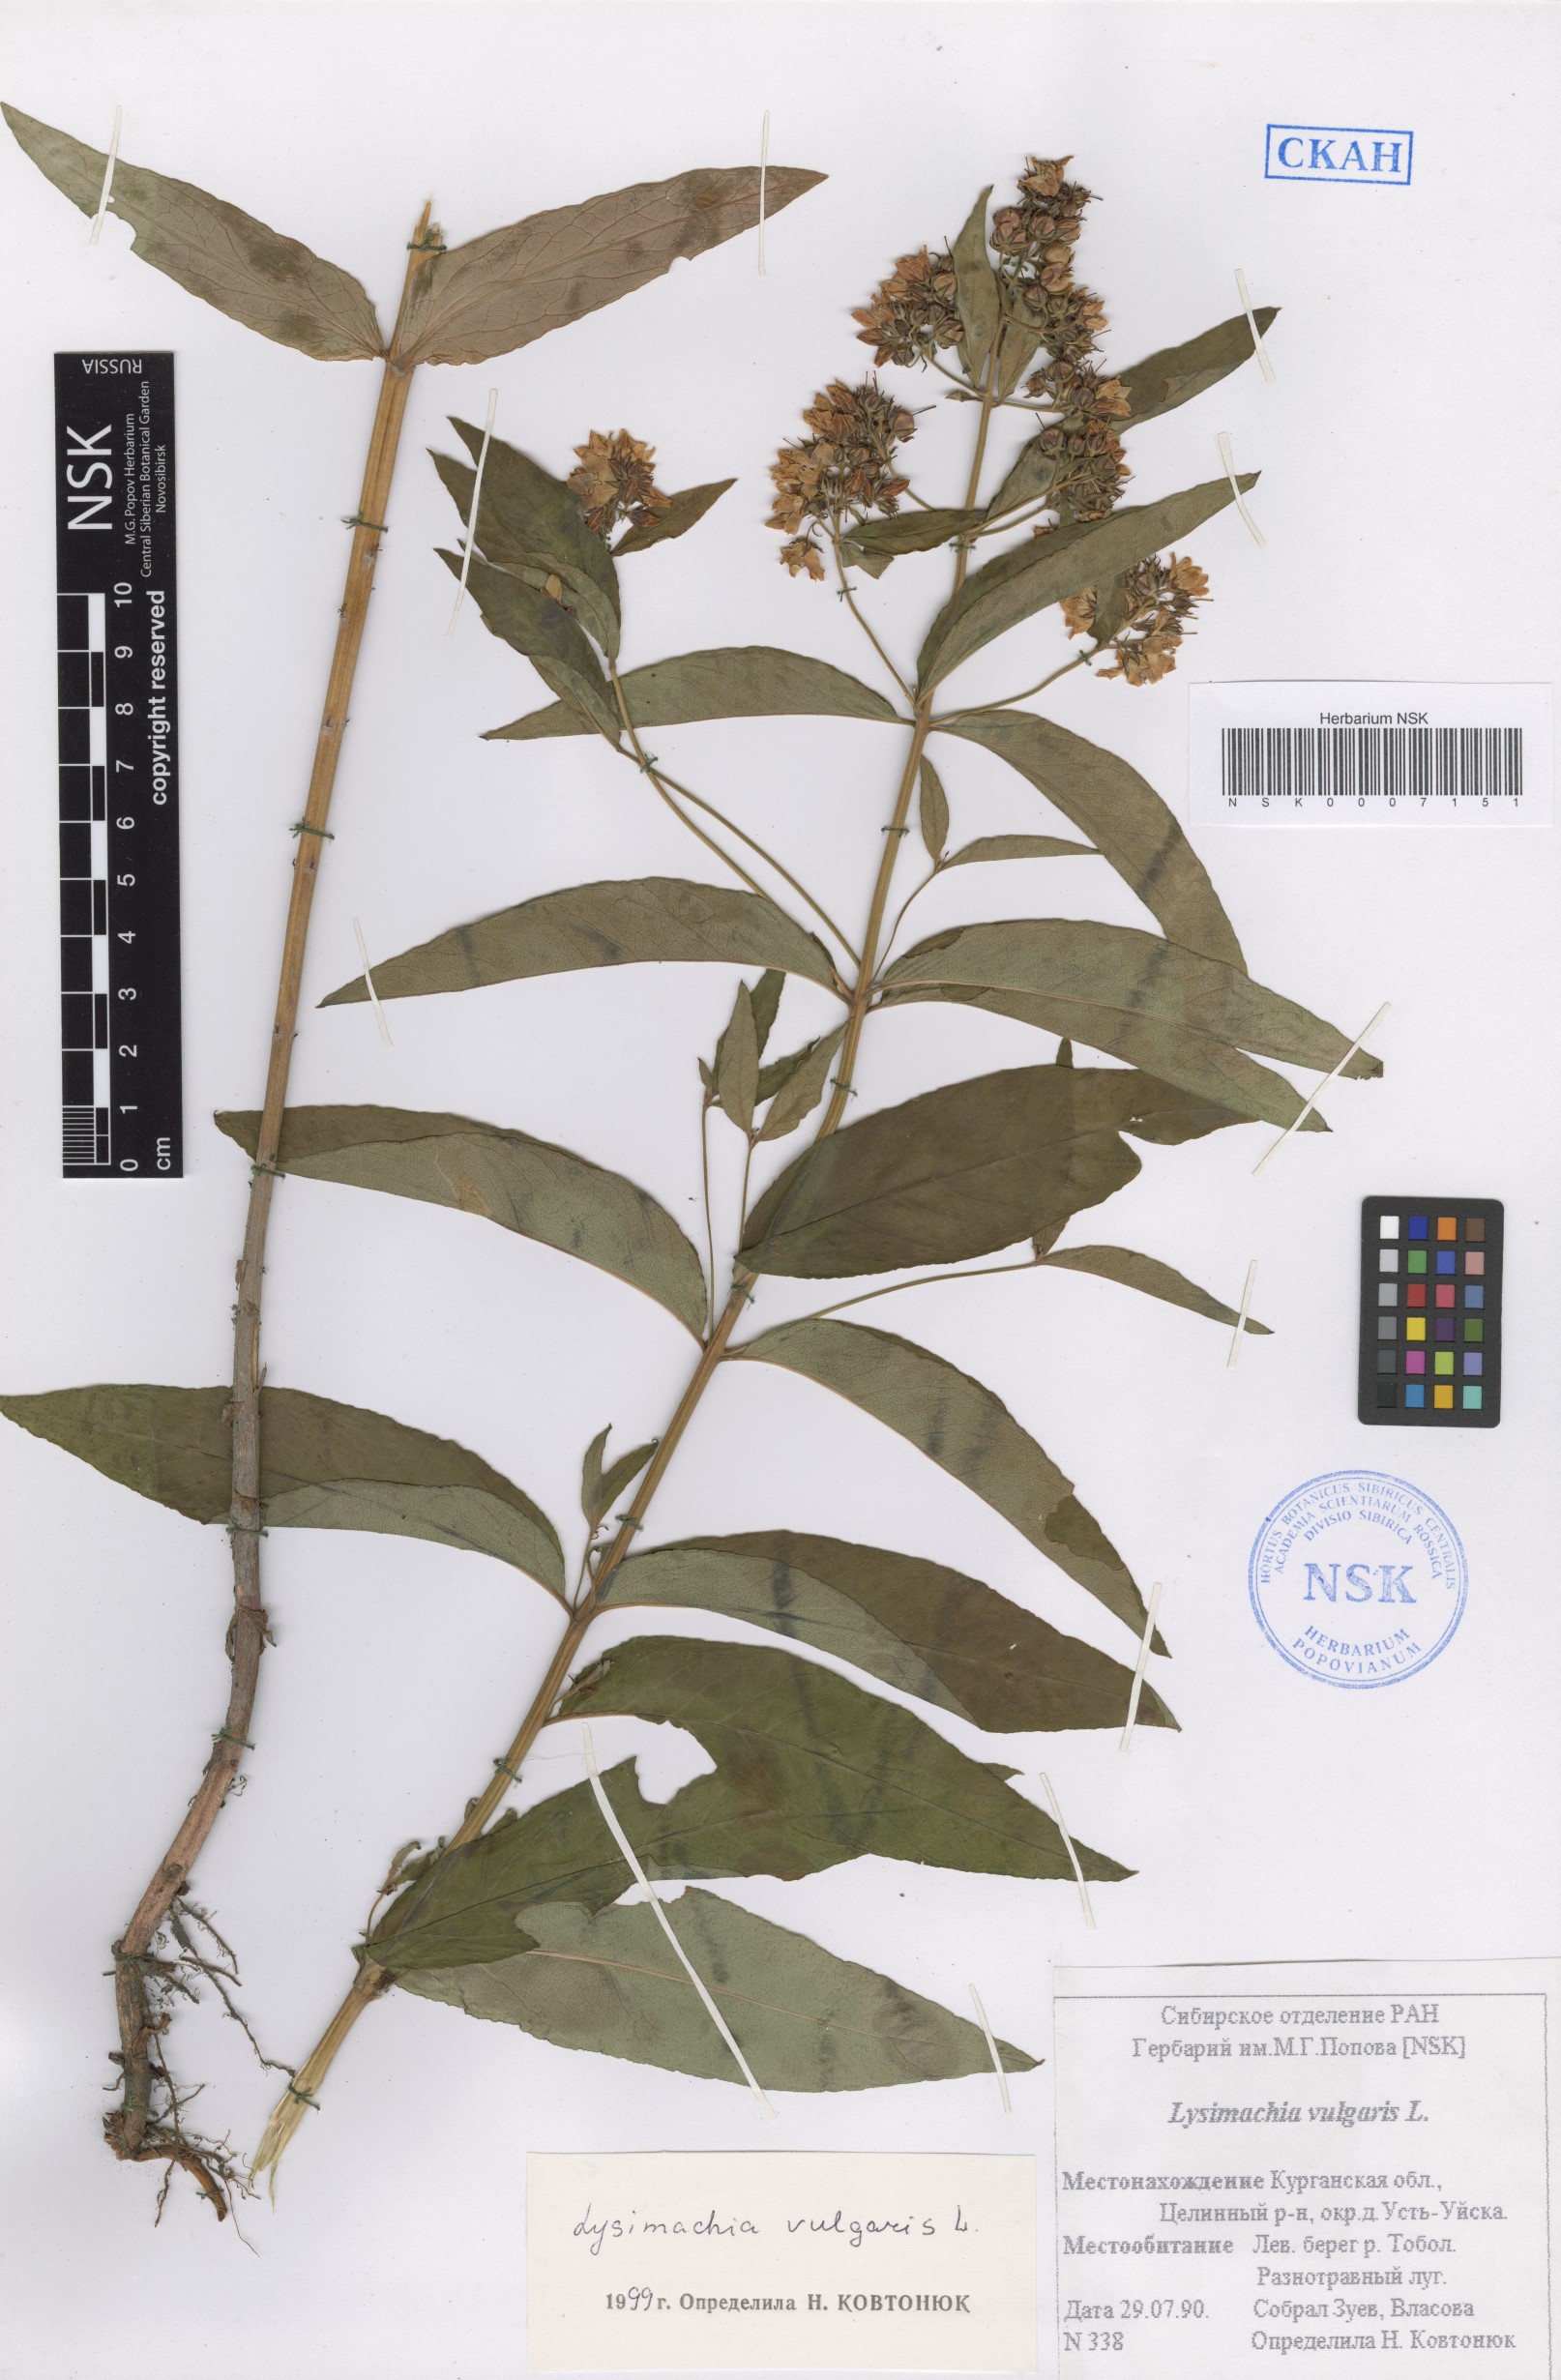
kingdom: Plantae
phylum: Tracheophyta
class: Magnoliopsida
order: Ericales
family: Primulaceae
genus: Lysimachia
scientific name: Lysimachia vulgaris
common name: Yellow loosestrife
